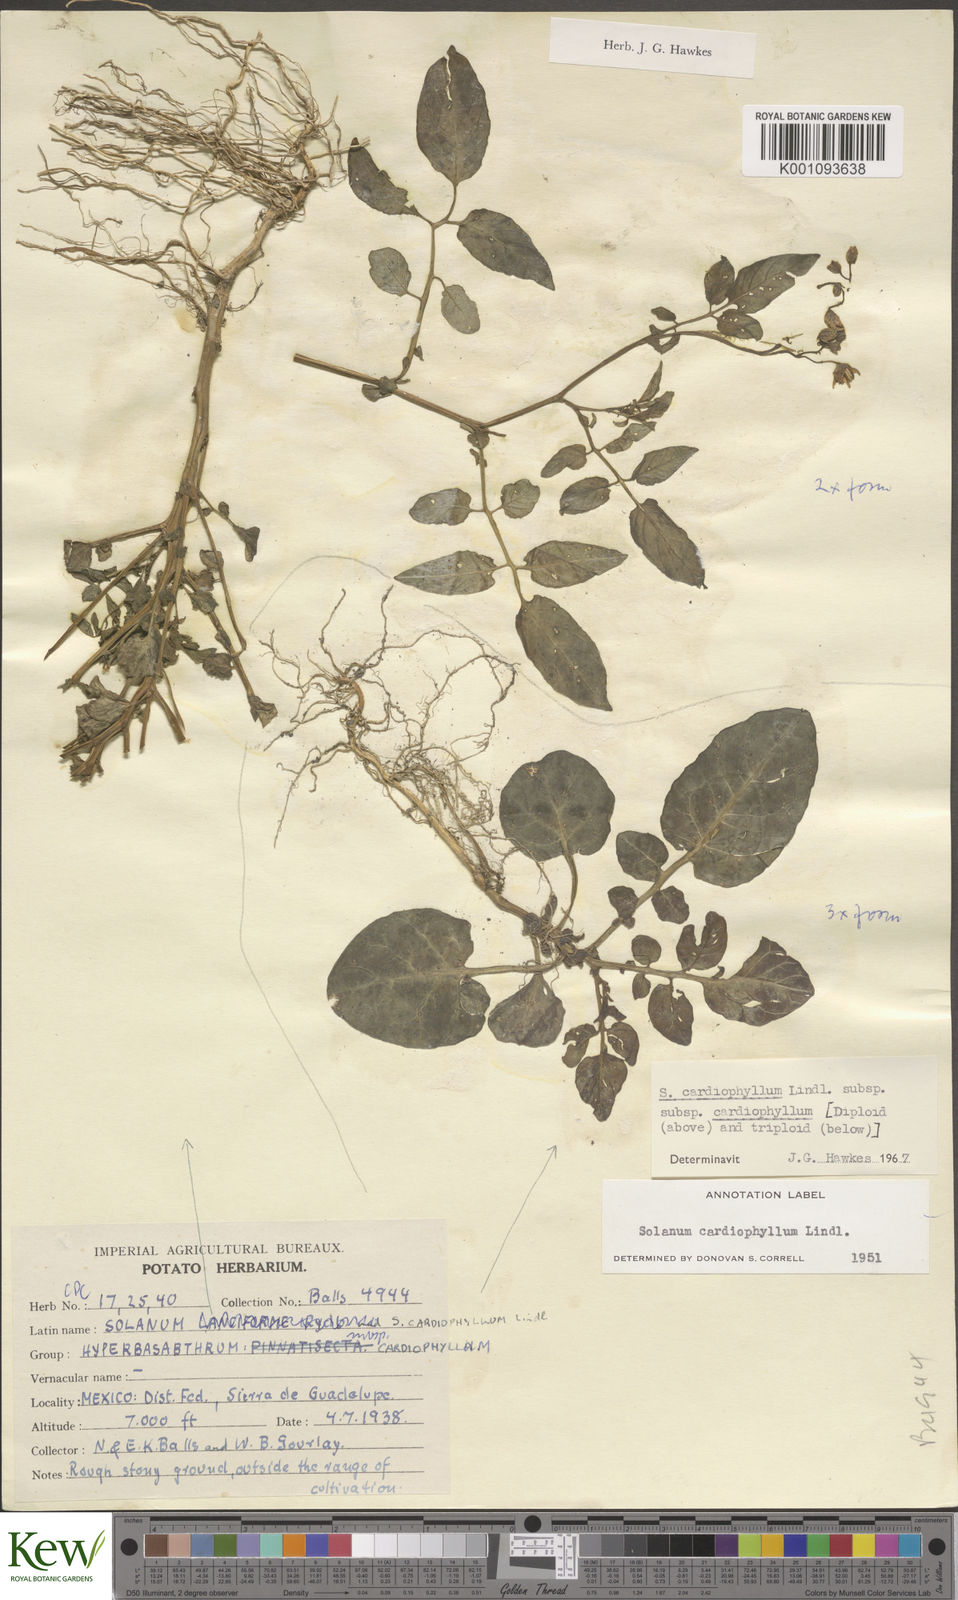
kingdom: Plantae
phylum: Tracheophyta
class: Magnoliopsida
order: Solanales
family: Solanaceae
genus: Solanum
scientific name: Solanum cardiophyllum
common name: Heartleaf horsenettle
